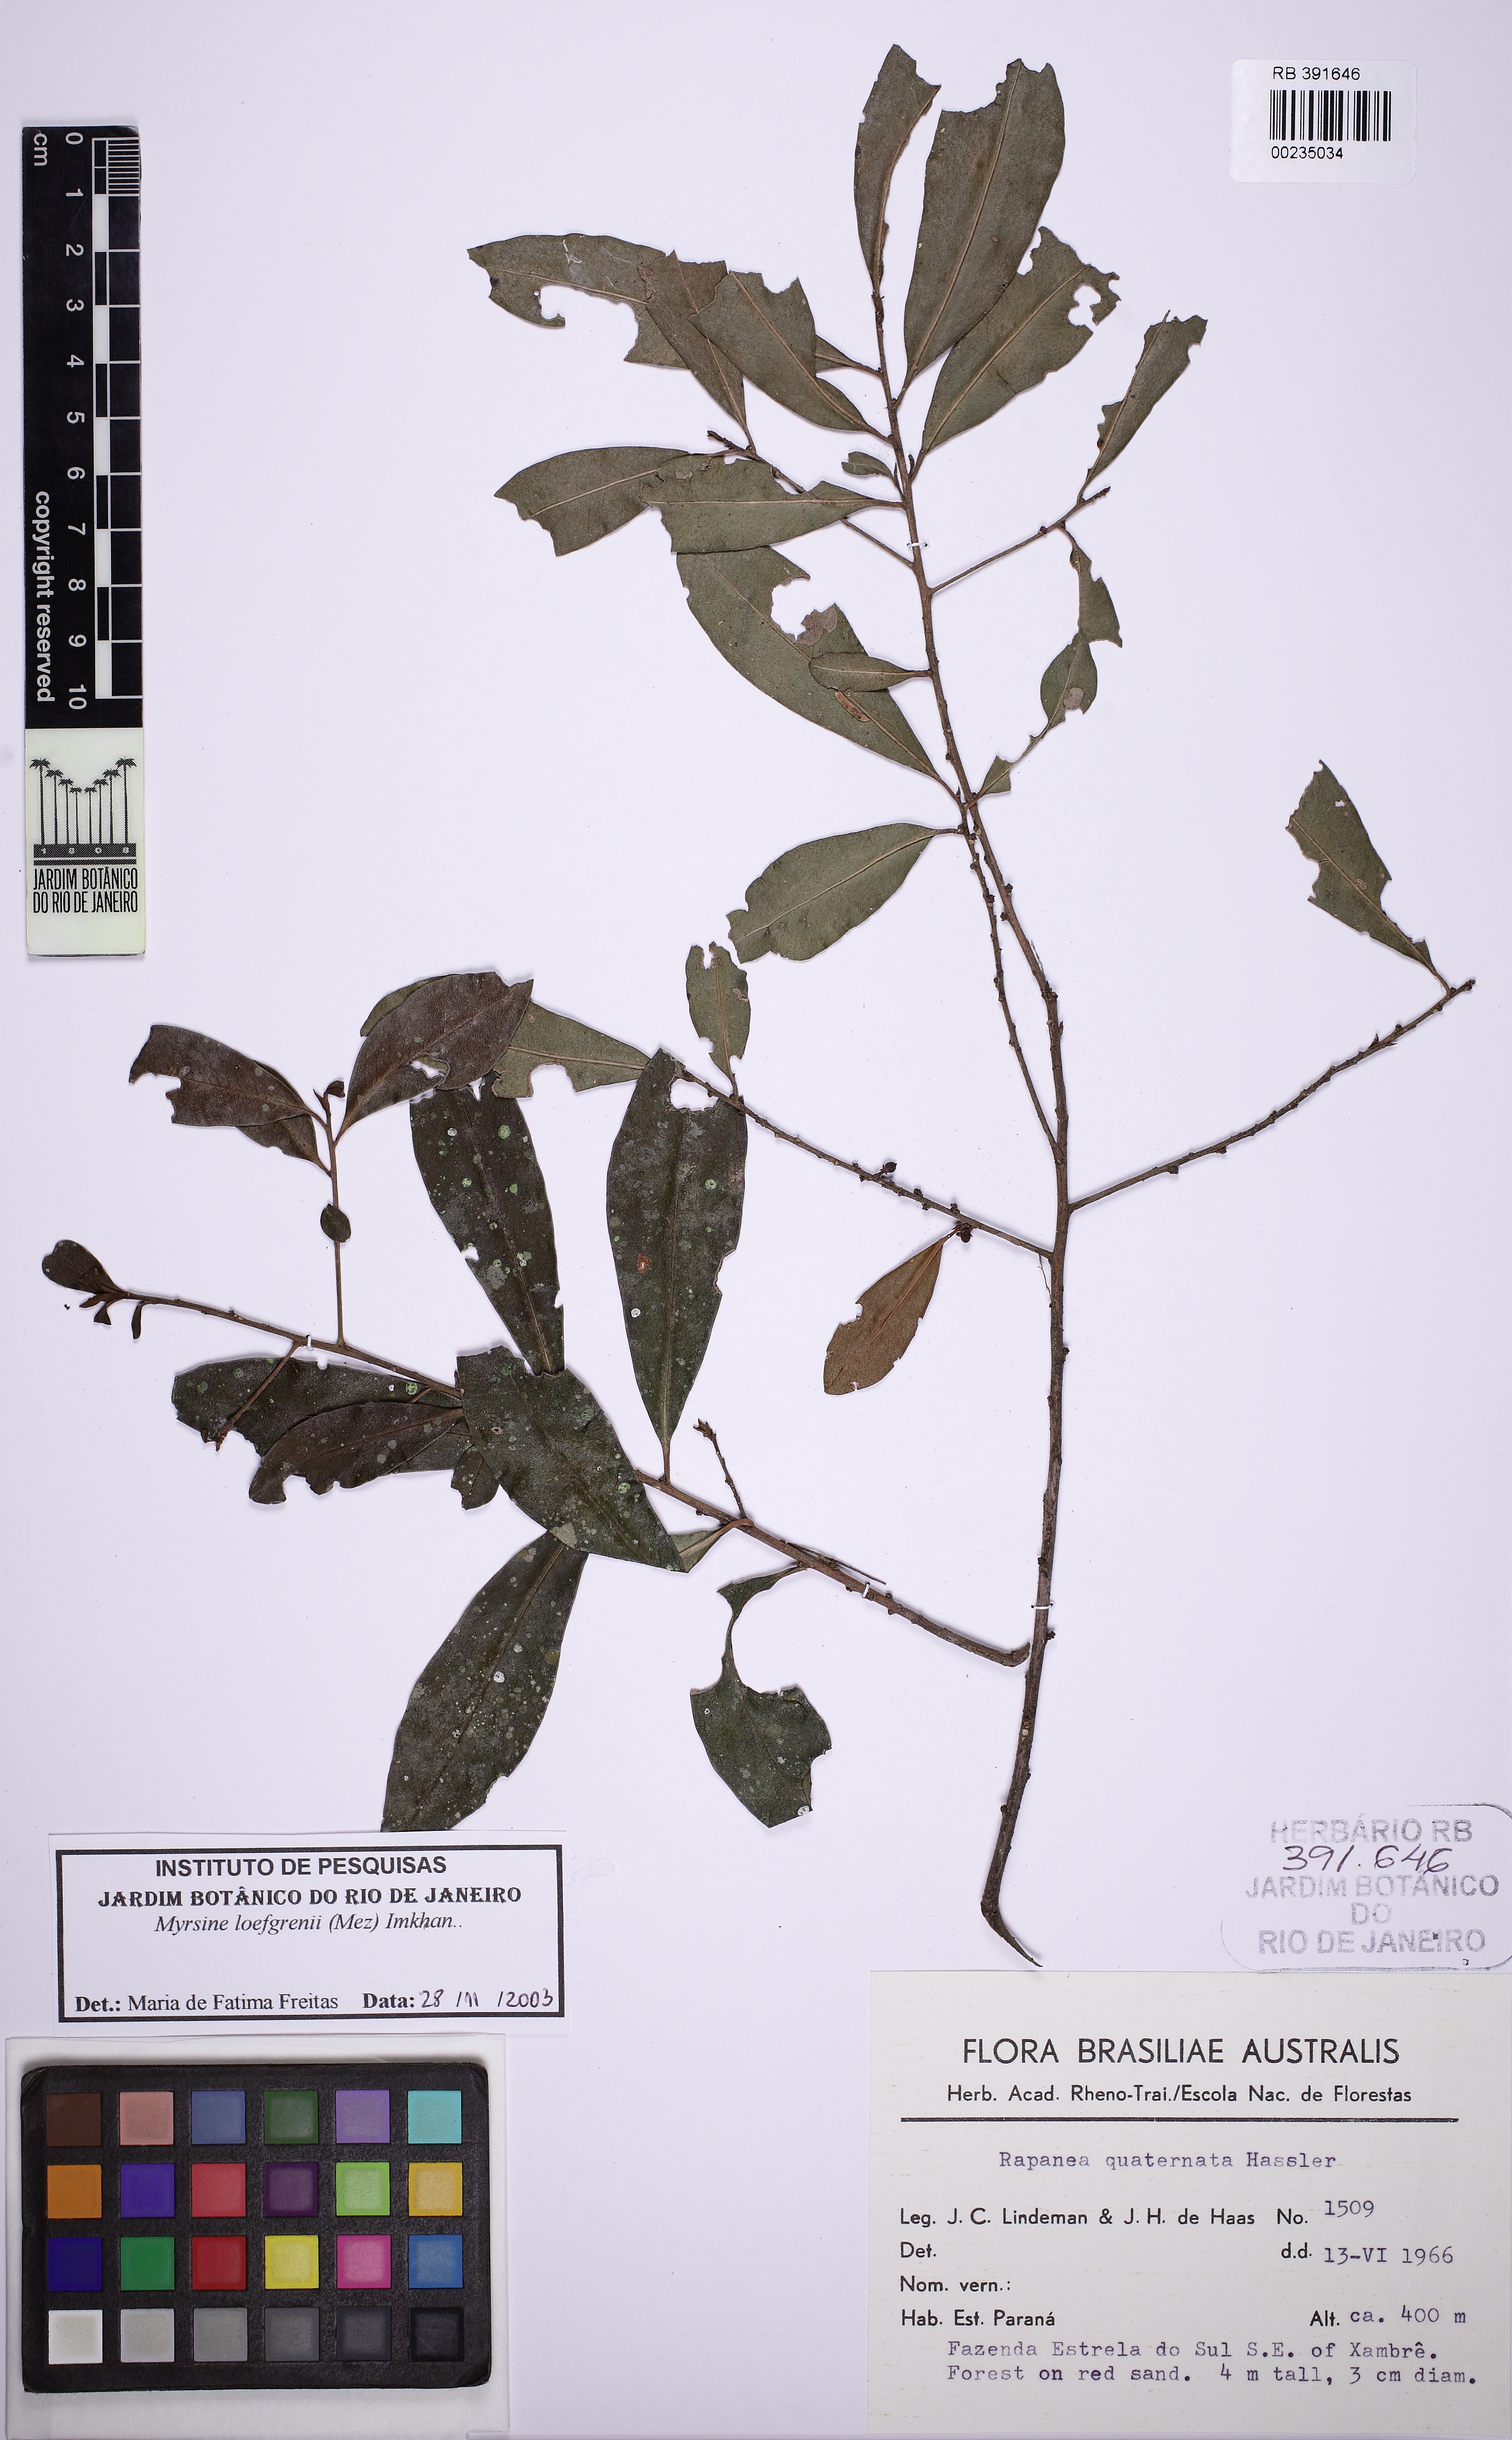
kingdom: Plantae
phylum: Tracheophyta
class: Magnoliopsida
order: Ericales
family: Primulaceae
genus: Myrsine
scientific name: Myrsine loefgrenii
